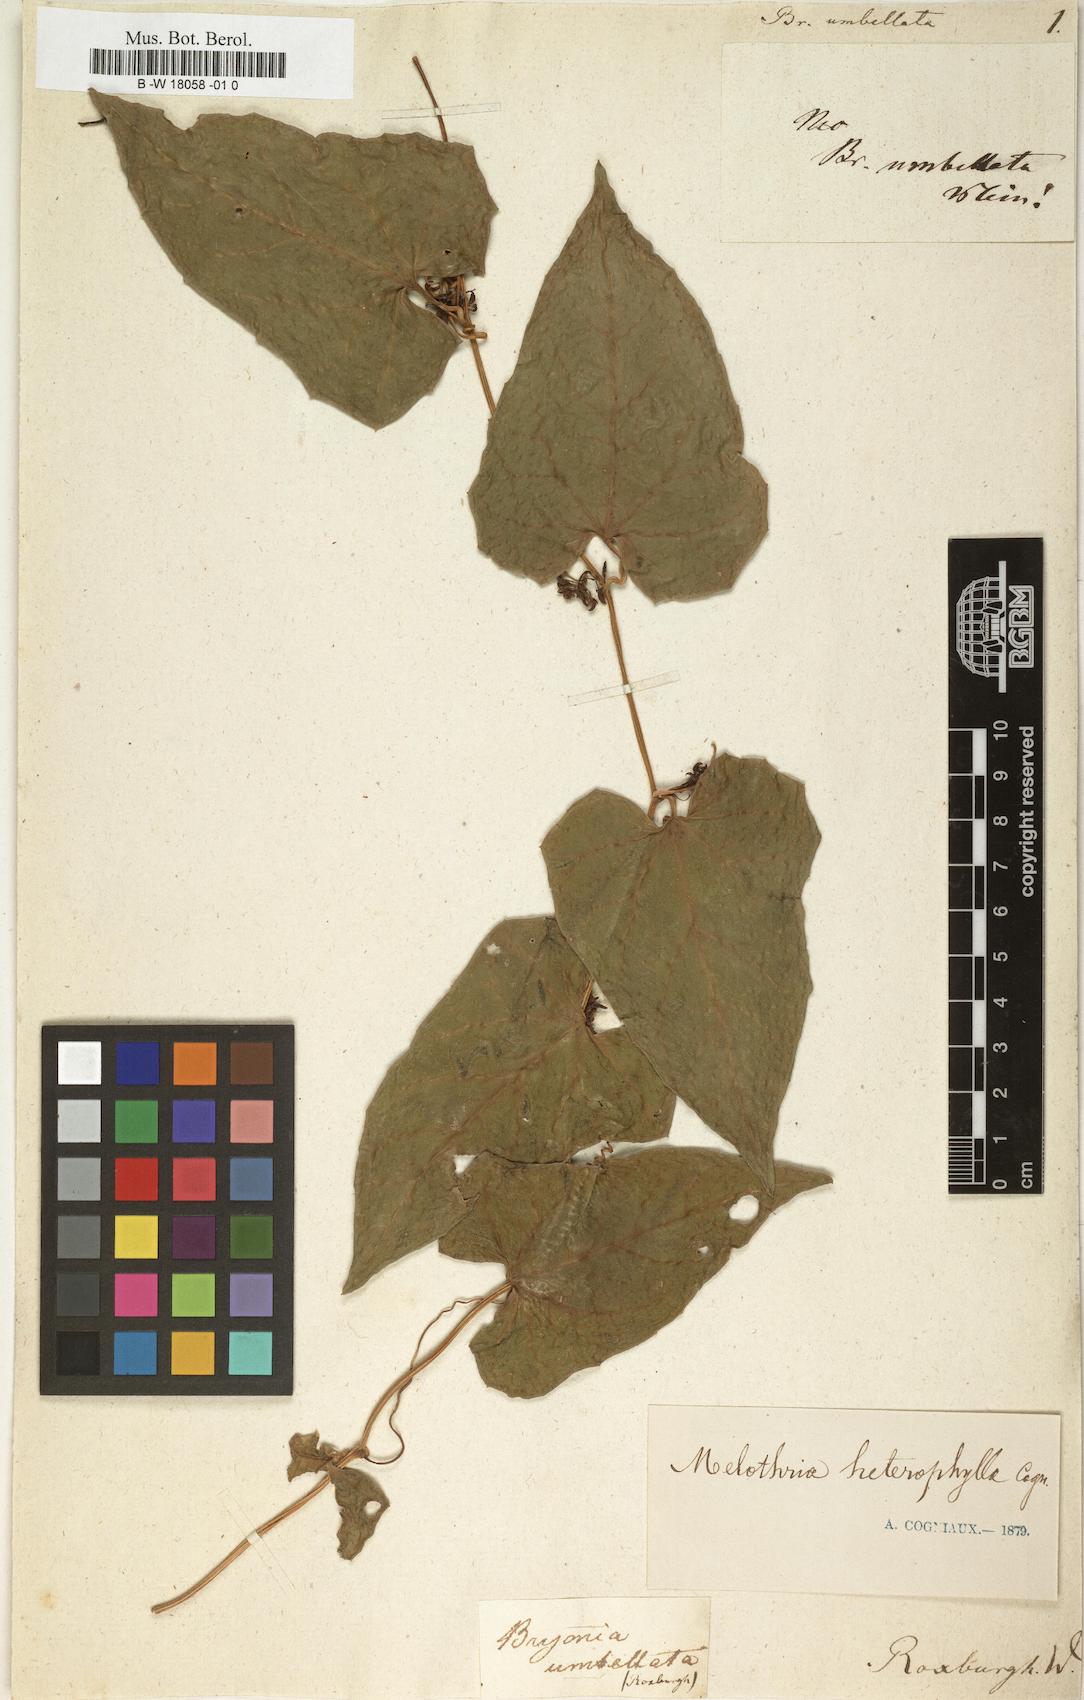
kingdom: Plantae
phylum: Tracheophyta
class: Magnoliopsida
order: Cucurbitales
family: Cucurbitaceae
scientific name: Cucurbitaceae
